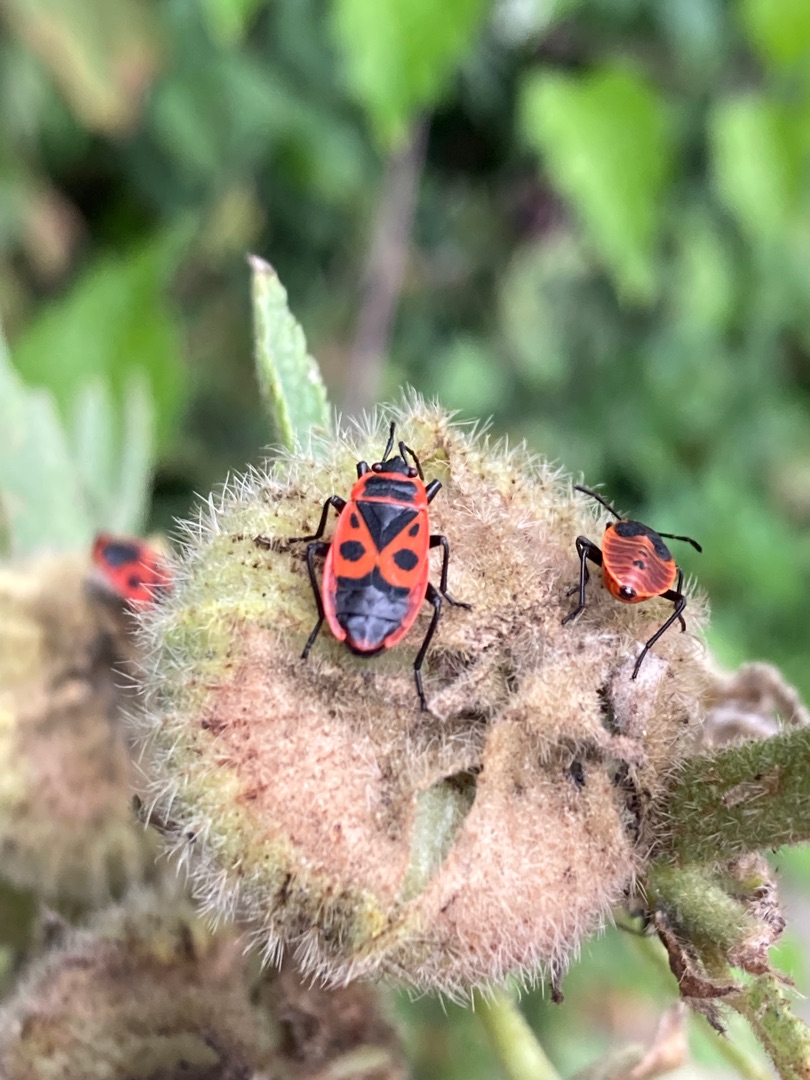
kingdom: Animalia
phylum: Arthropoda
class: Insecta
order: Hemiptera
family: Pyrrhocoridae
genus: Pyrrhocoris
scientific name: Pyrrhocoris apterus
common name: Ildtæge
